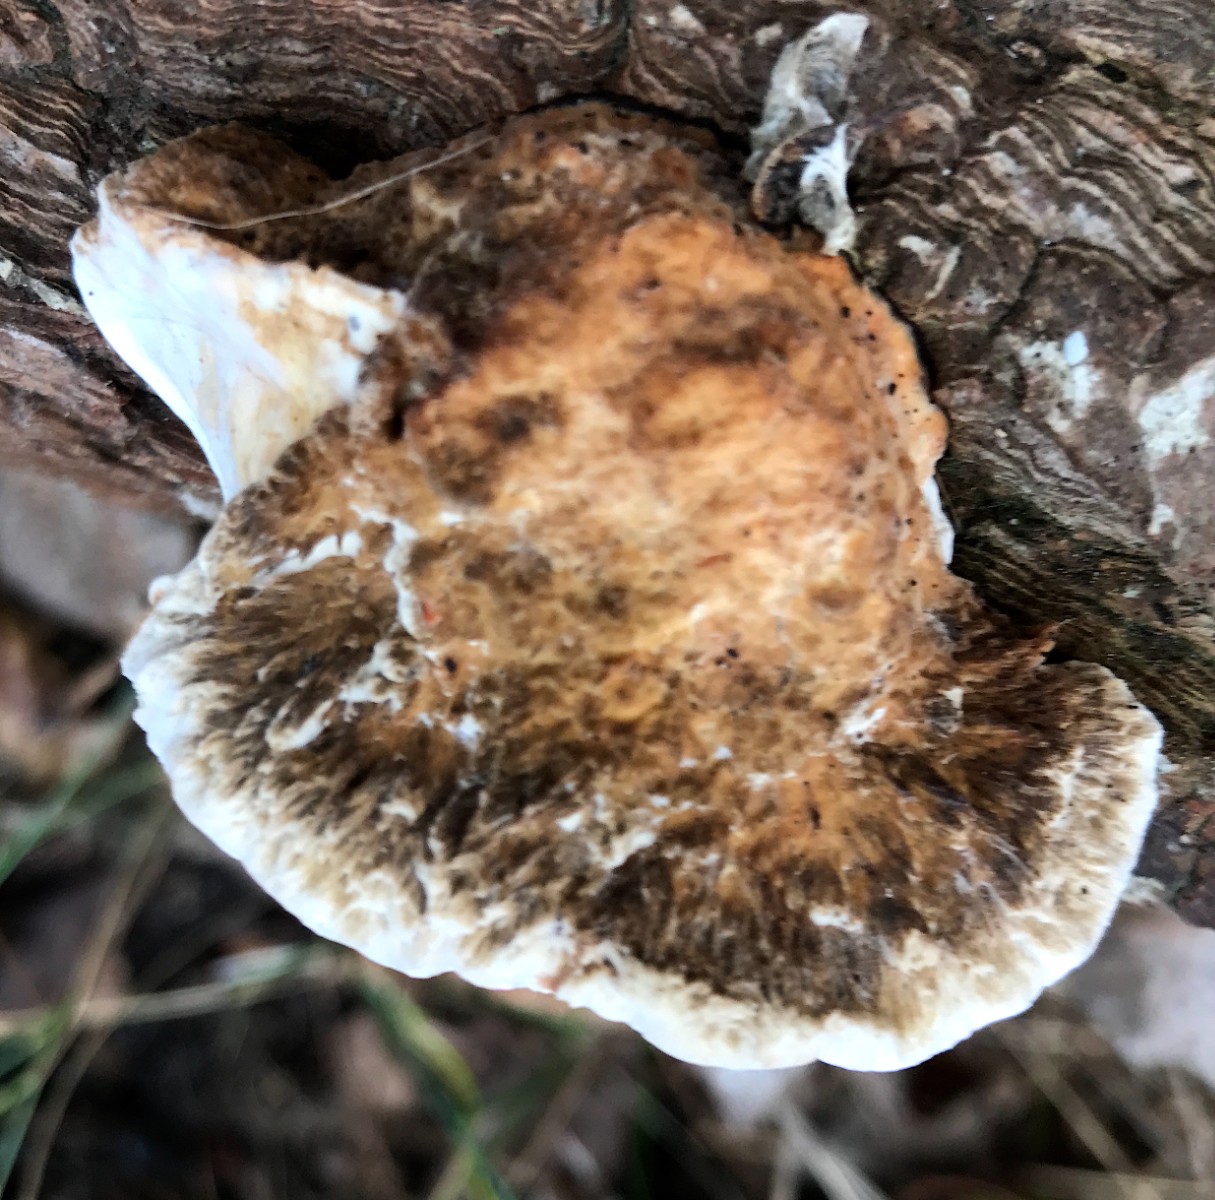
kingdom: Fungi
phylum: Basidiomycota
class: Agaricomycetes
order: Polyporales
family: Polyporaceae
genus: Daedaleopsis
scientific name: Daedaleopsis confragosa
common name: rødmende læderporesvamp
